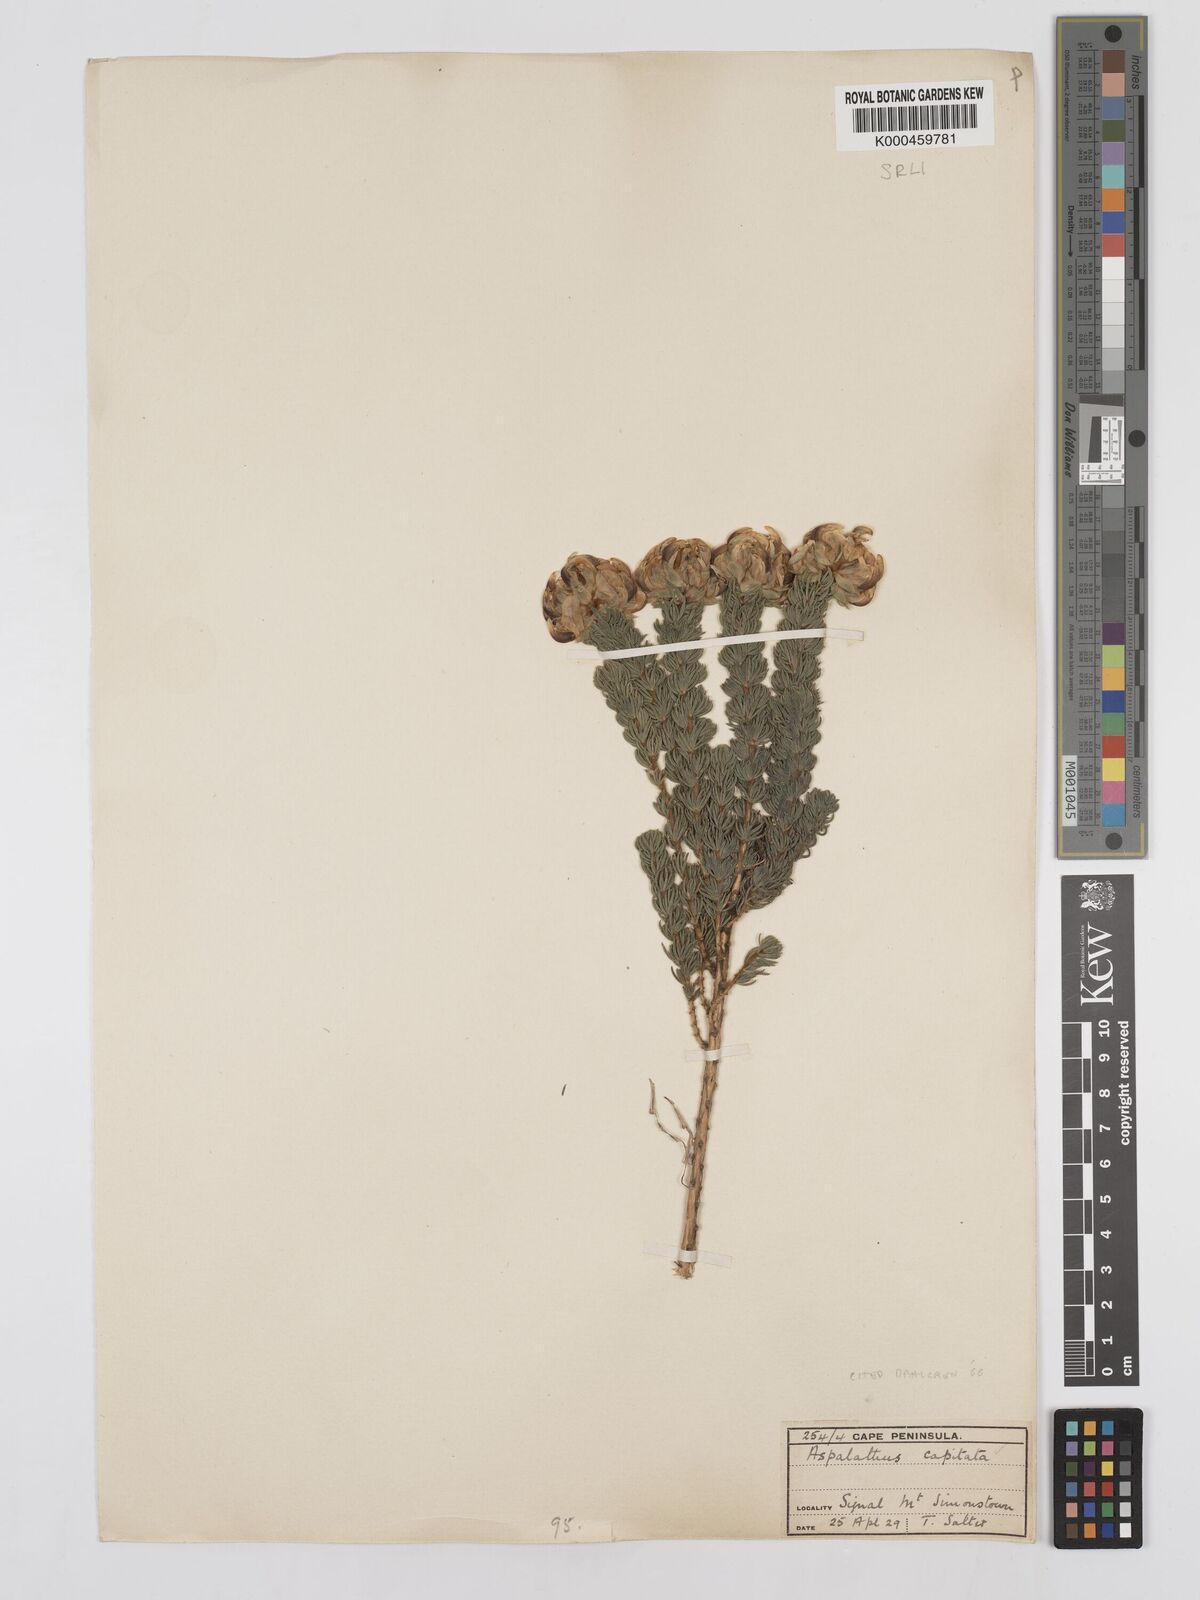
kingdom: Plantae
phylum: Tracheophyta
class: Magnoliopsida
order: Fabales
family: Fabaceae
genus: Aspalathus
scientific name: Aspalathus capitata
